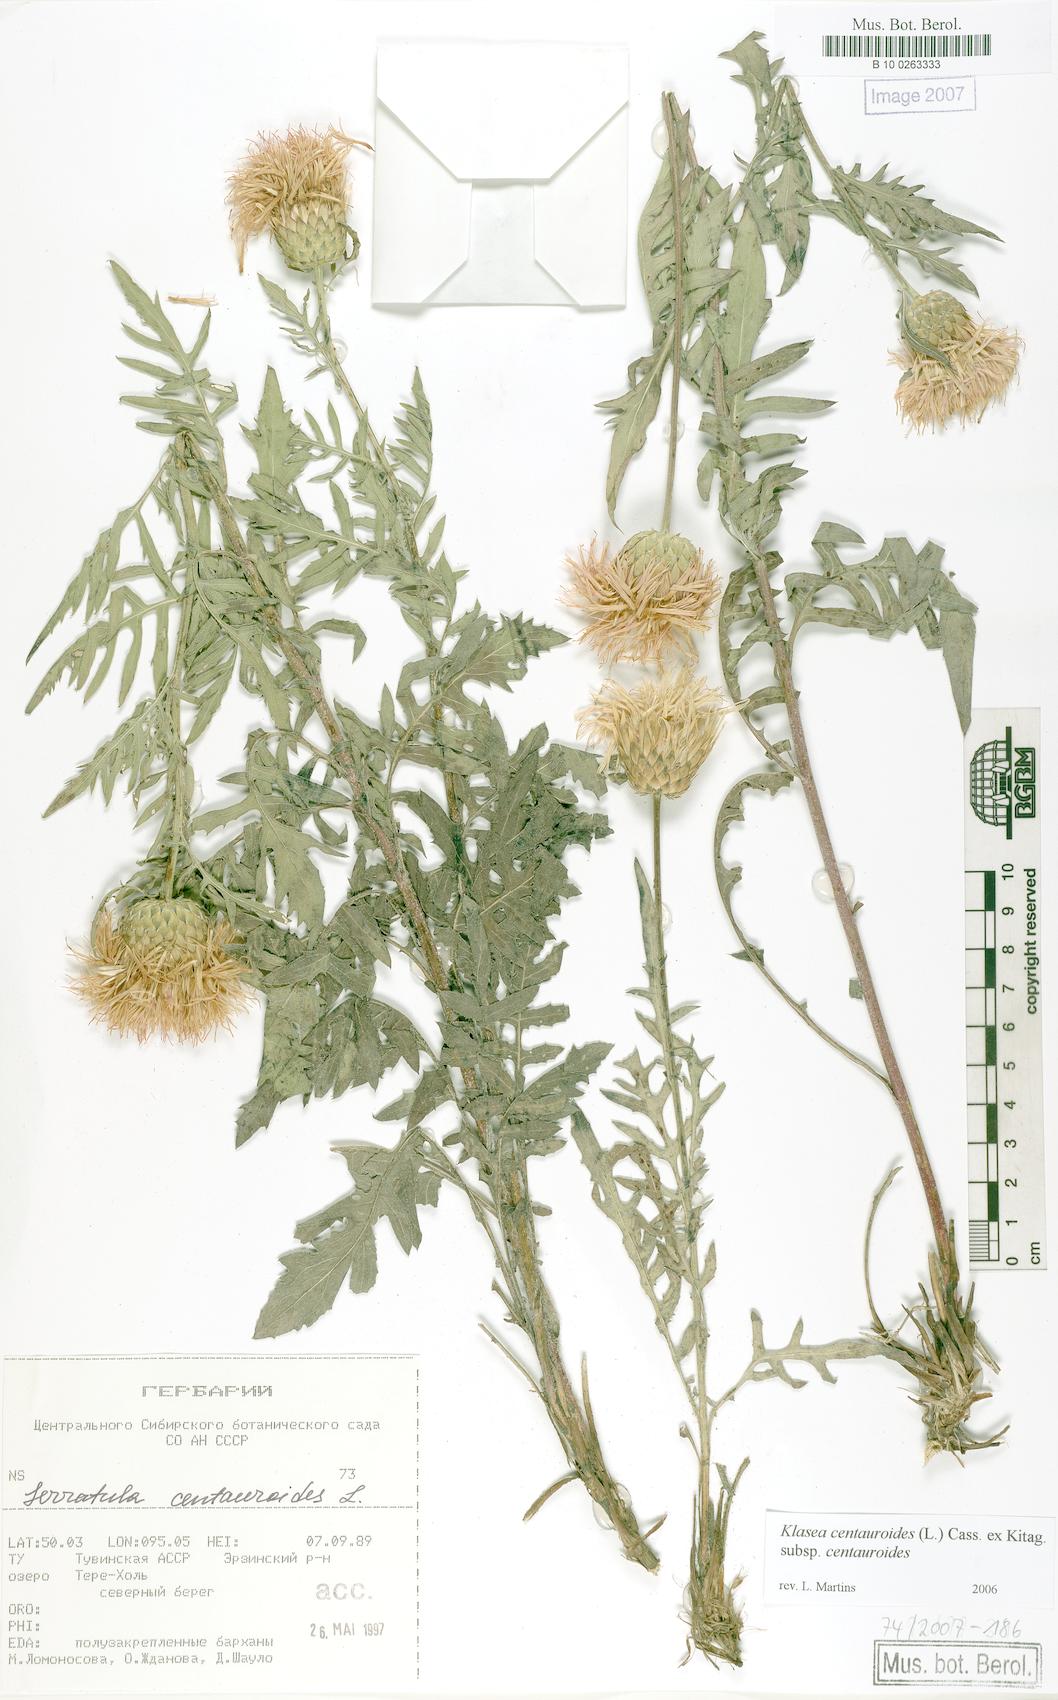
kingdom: Plantae
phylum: Tracheophyta
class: Magnoliopsida
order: Asterales
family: Asteraceae
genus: Klasea
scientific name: Klasea centauroides
